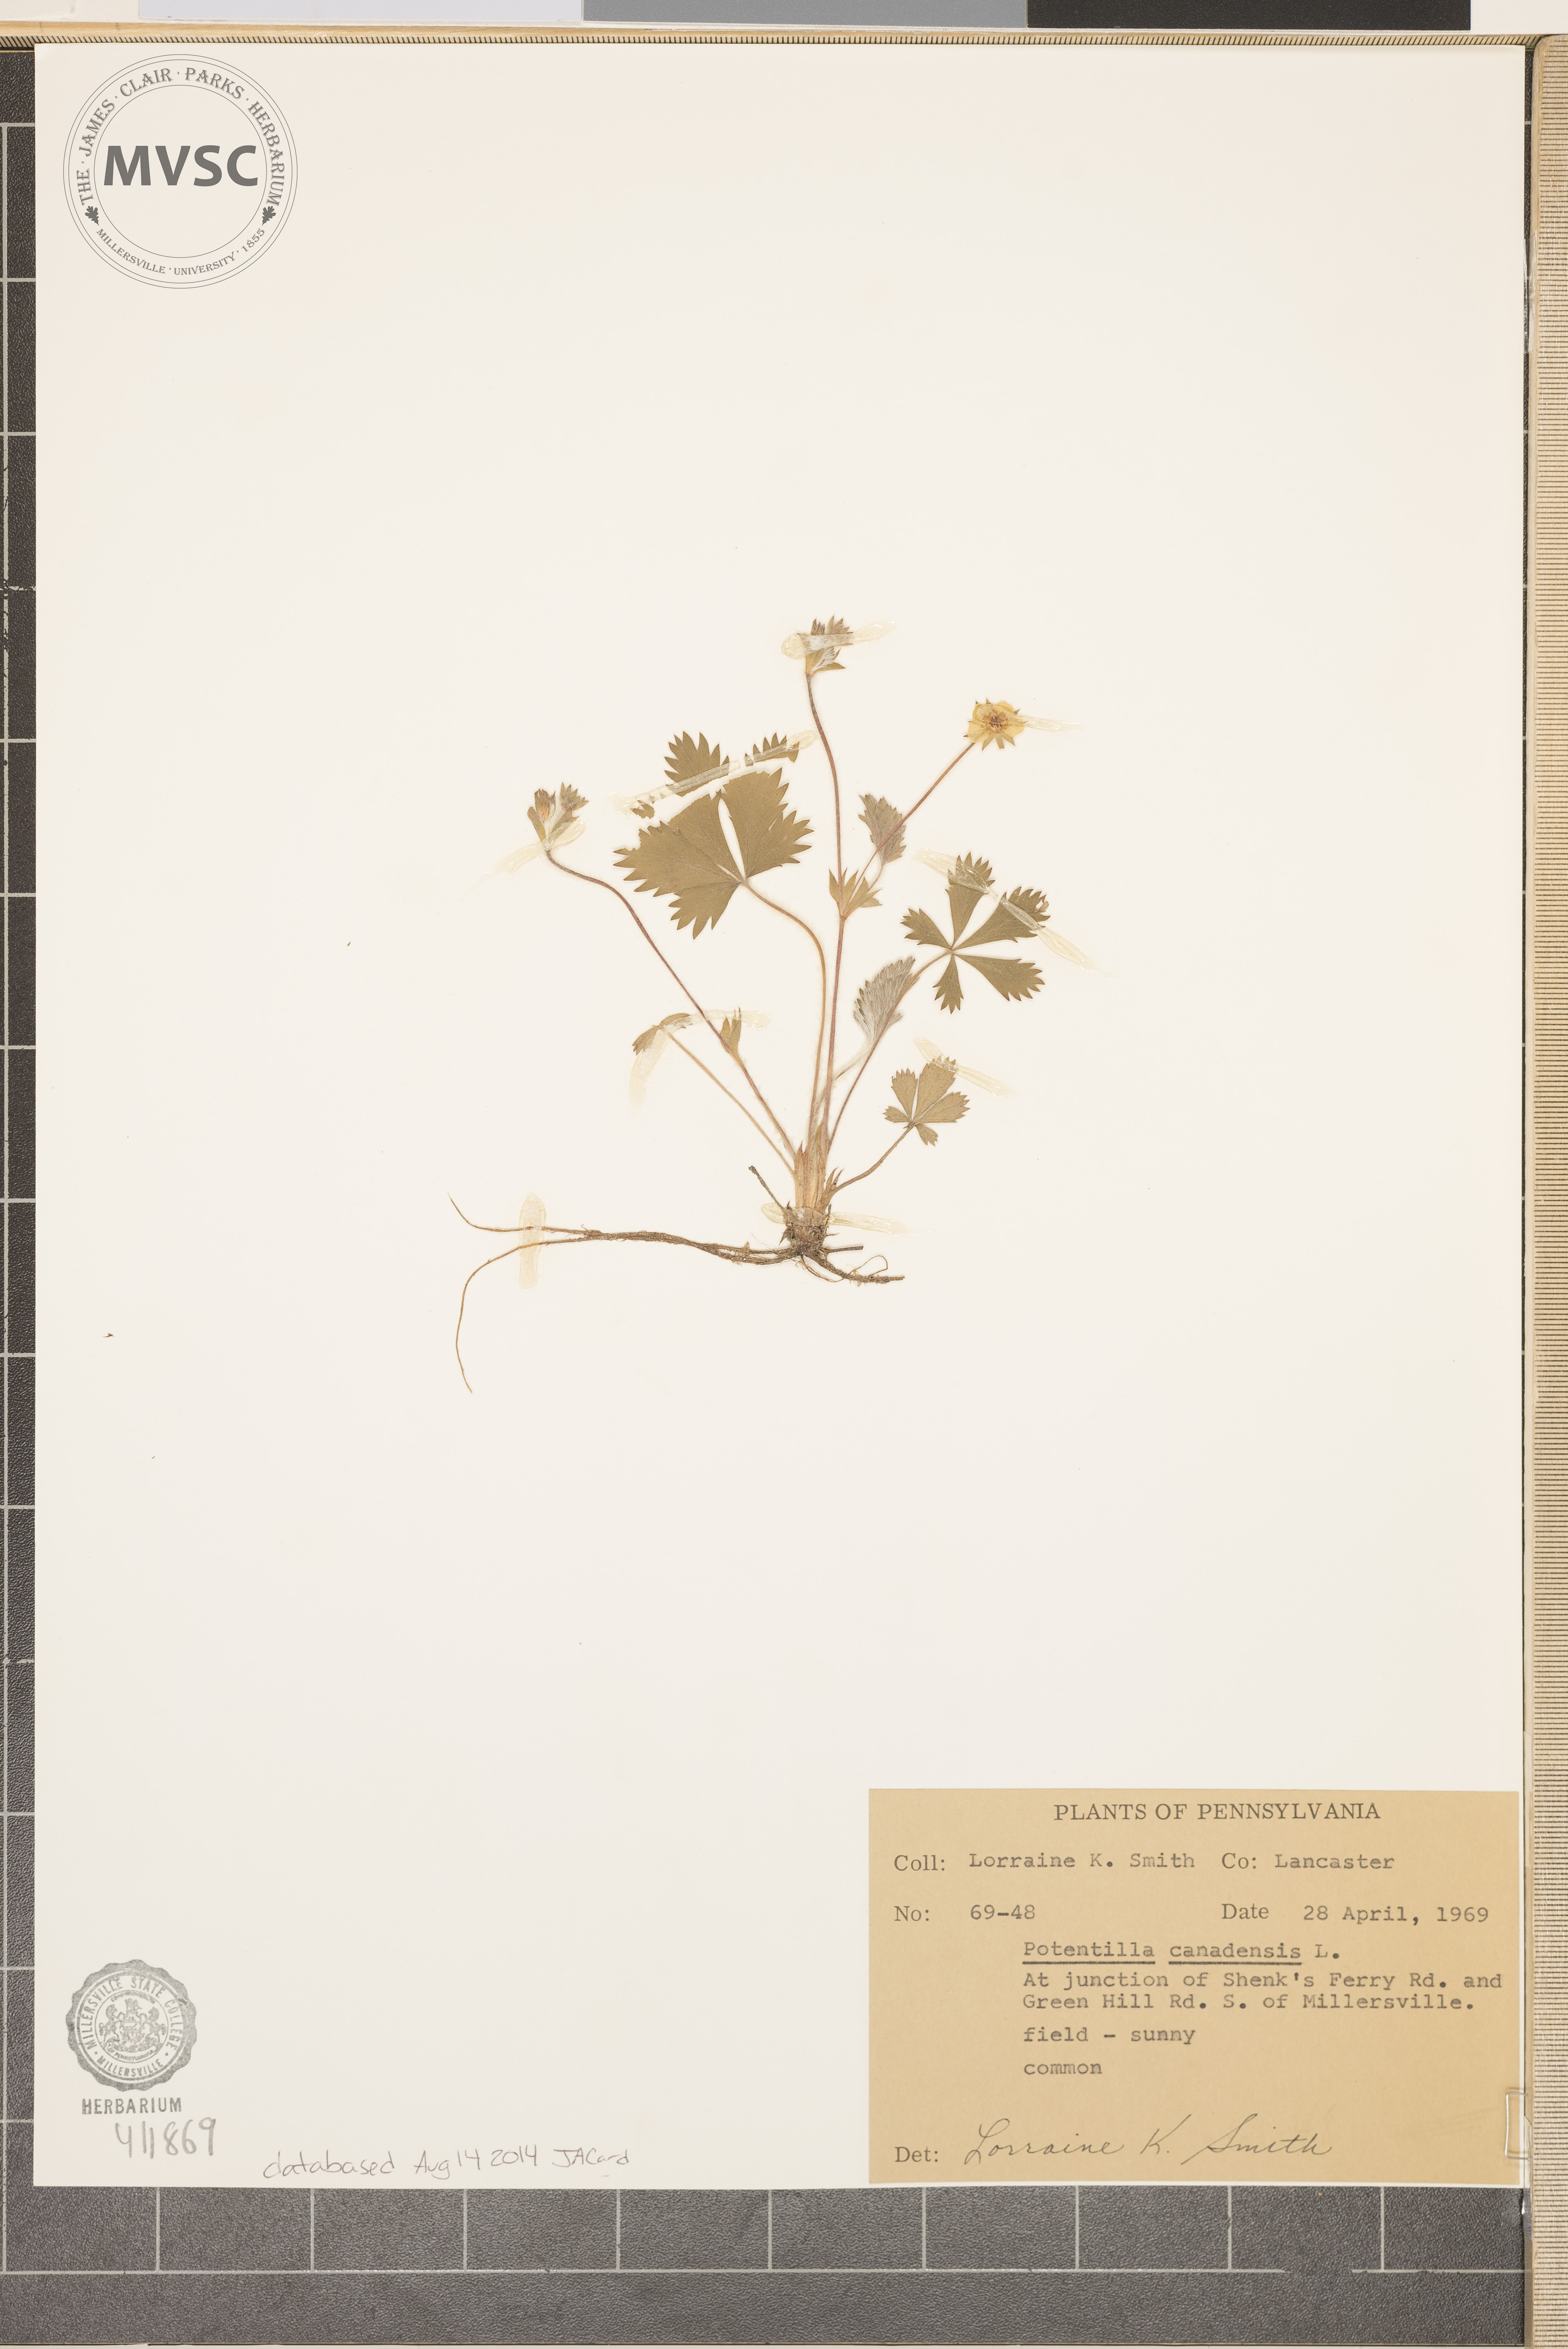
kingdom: Plantae
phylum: Tracheophyta
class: Magnoliopsida
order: Rosales
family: Rosaceae
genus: Potentilla
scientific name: Potentilla canadensis
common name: Canada cinquefoil
